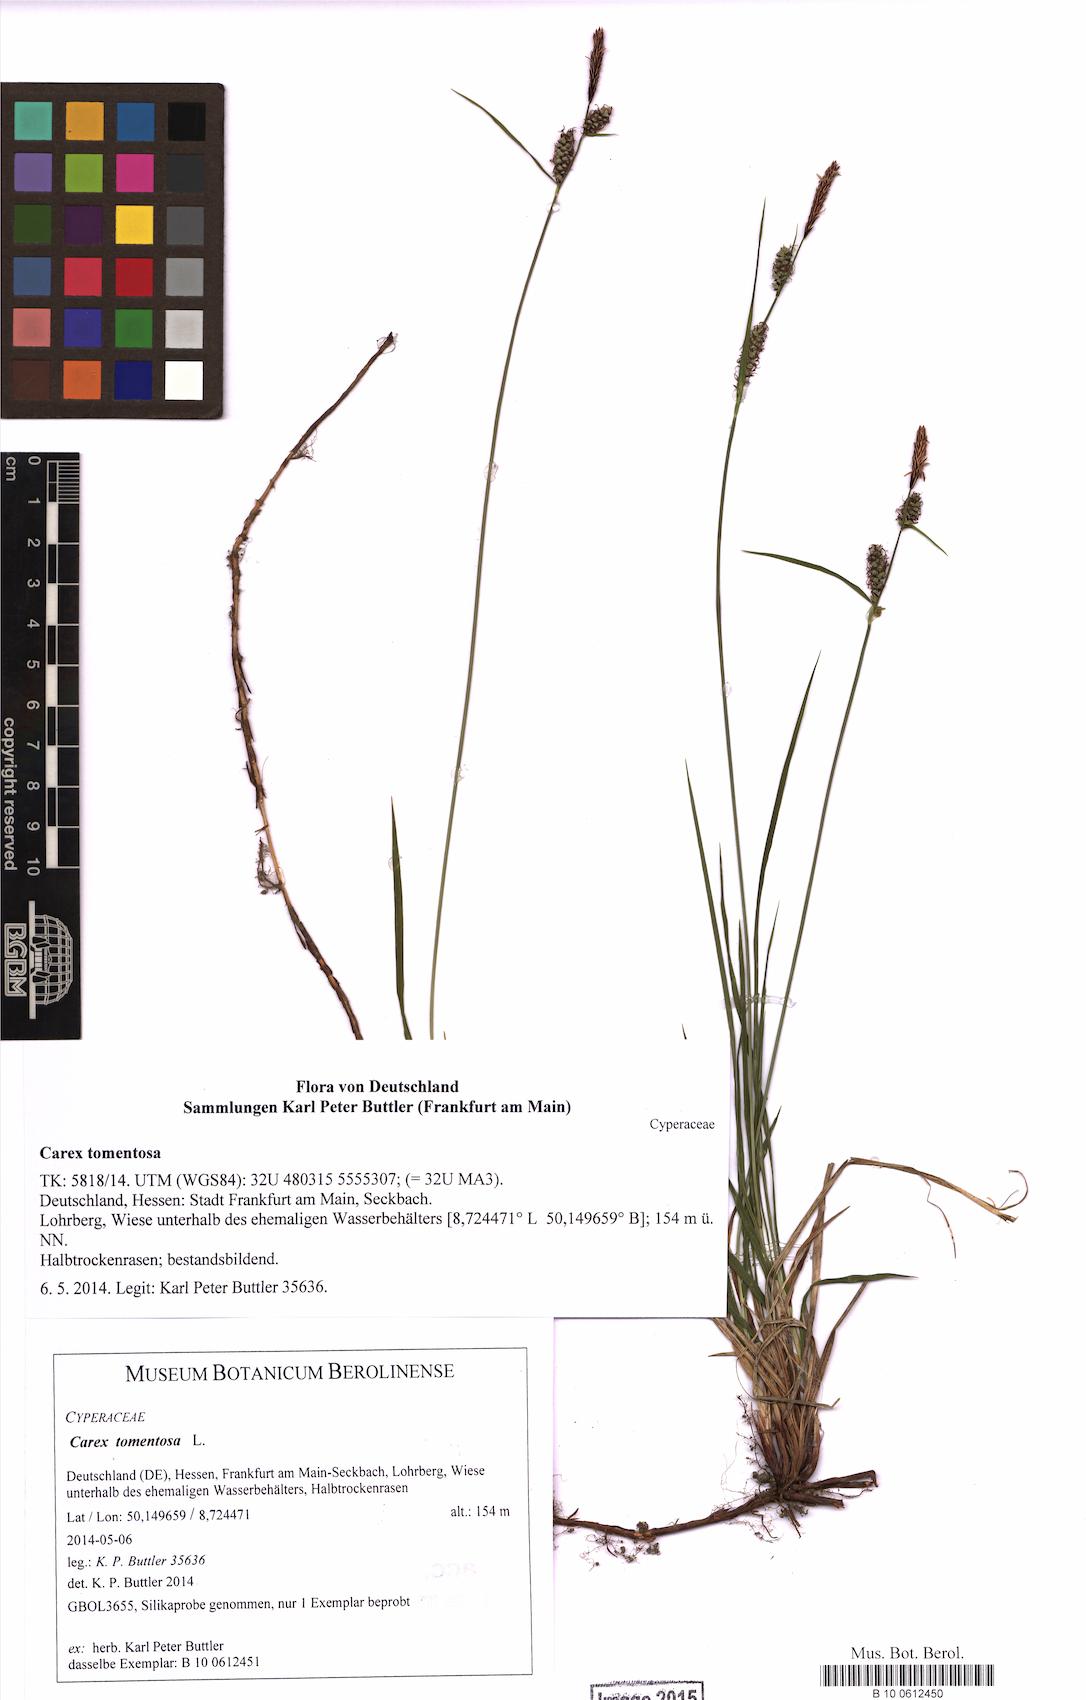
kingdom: Plantae
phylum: Tracheophyta
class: Liliopsida
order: Poales
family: Cyperaceae
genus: Carex
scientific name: Carex tomentosa
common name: Downy-fruited sedge
